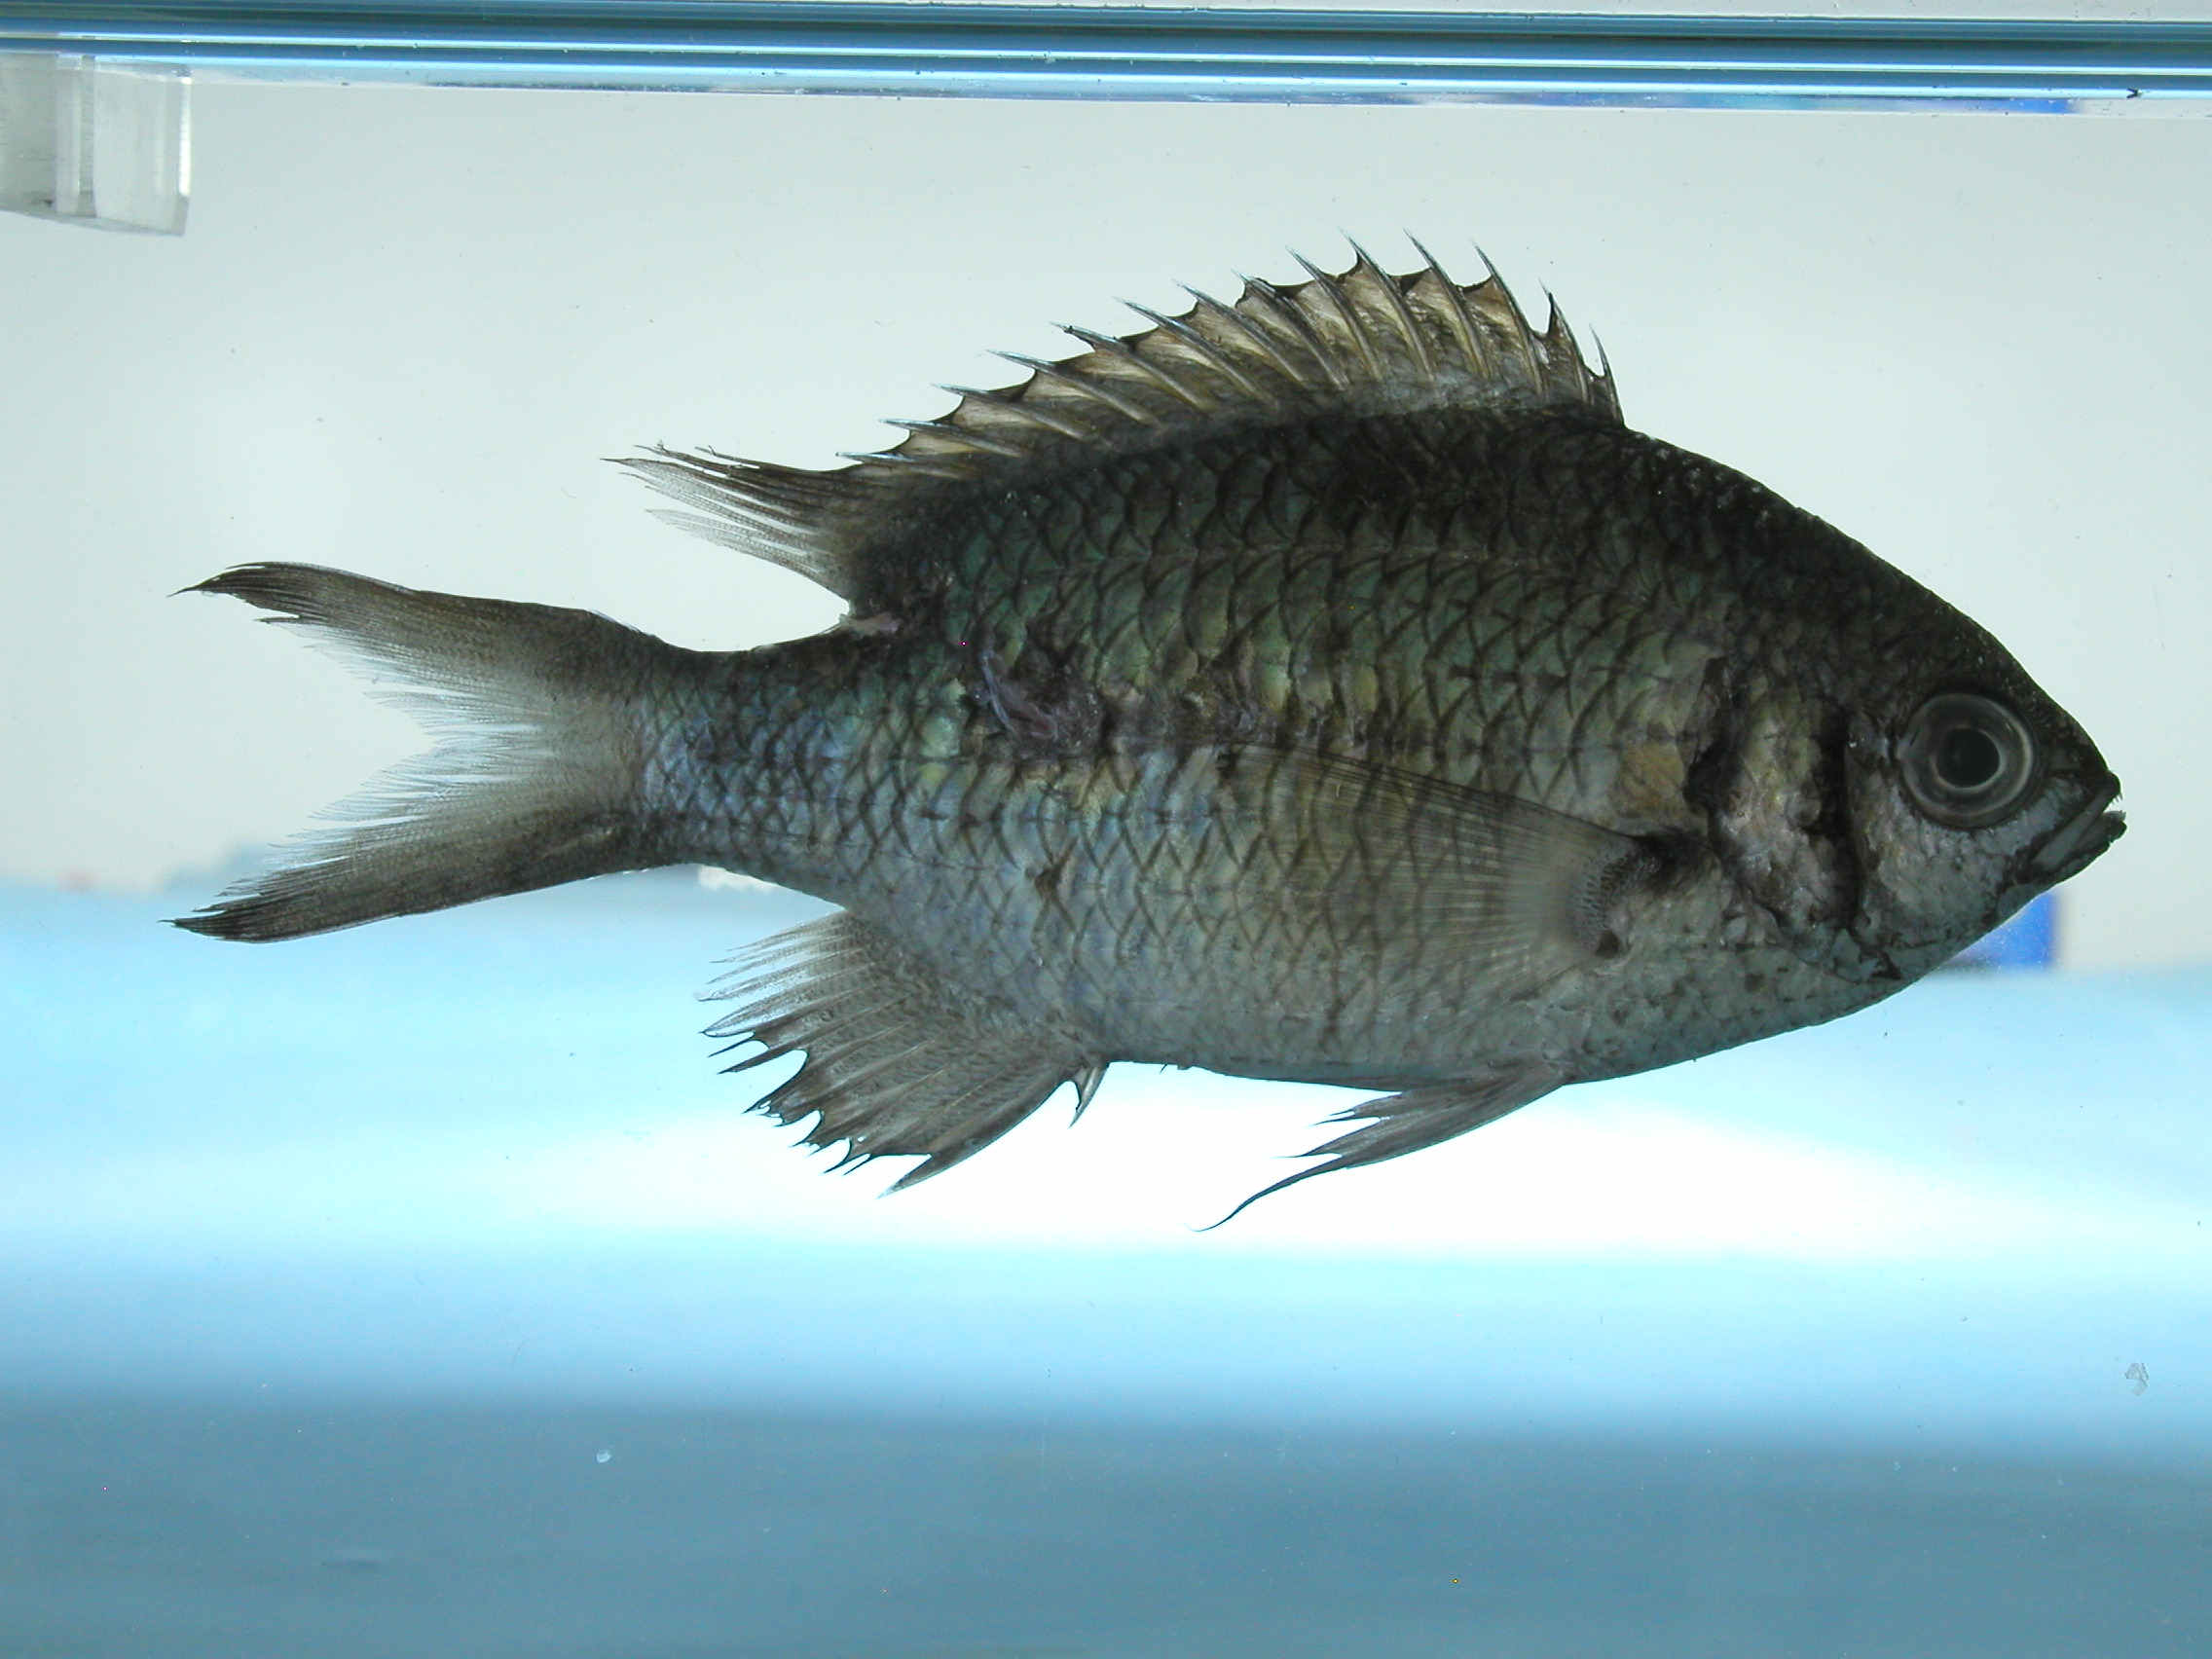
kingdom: Animalia
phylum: Chordata
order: Perciformes
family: Pomacentridae
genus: Chromis
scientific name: Chromis weberi
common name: Weber's chromis
